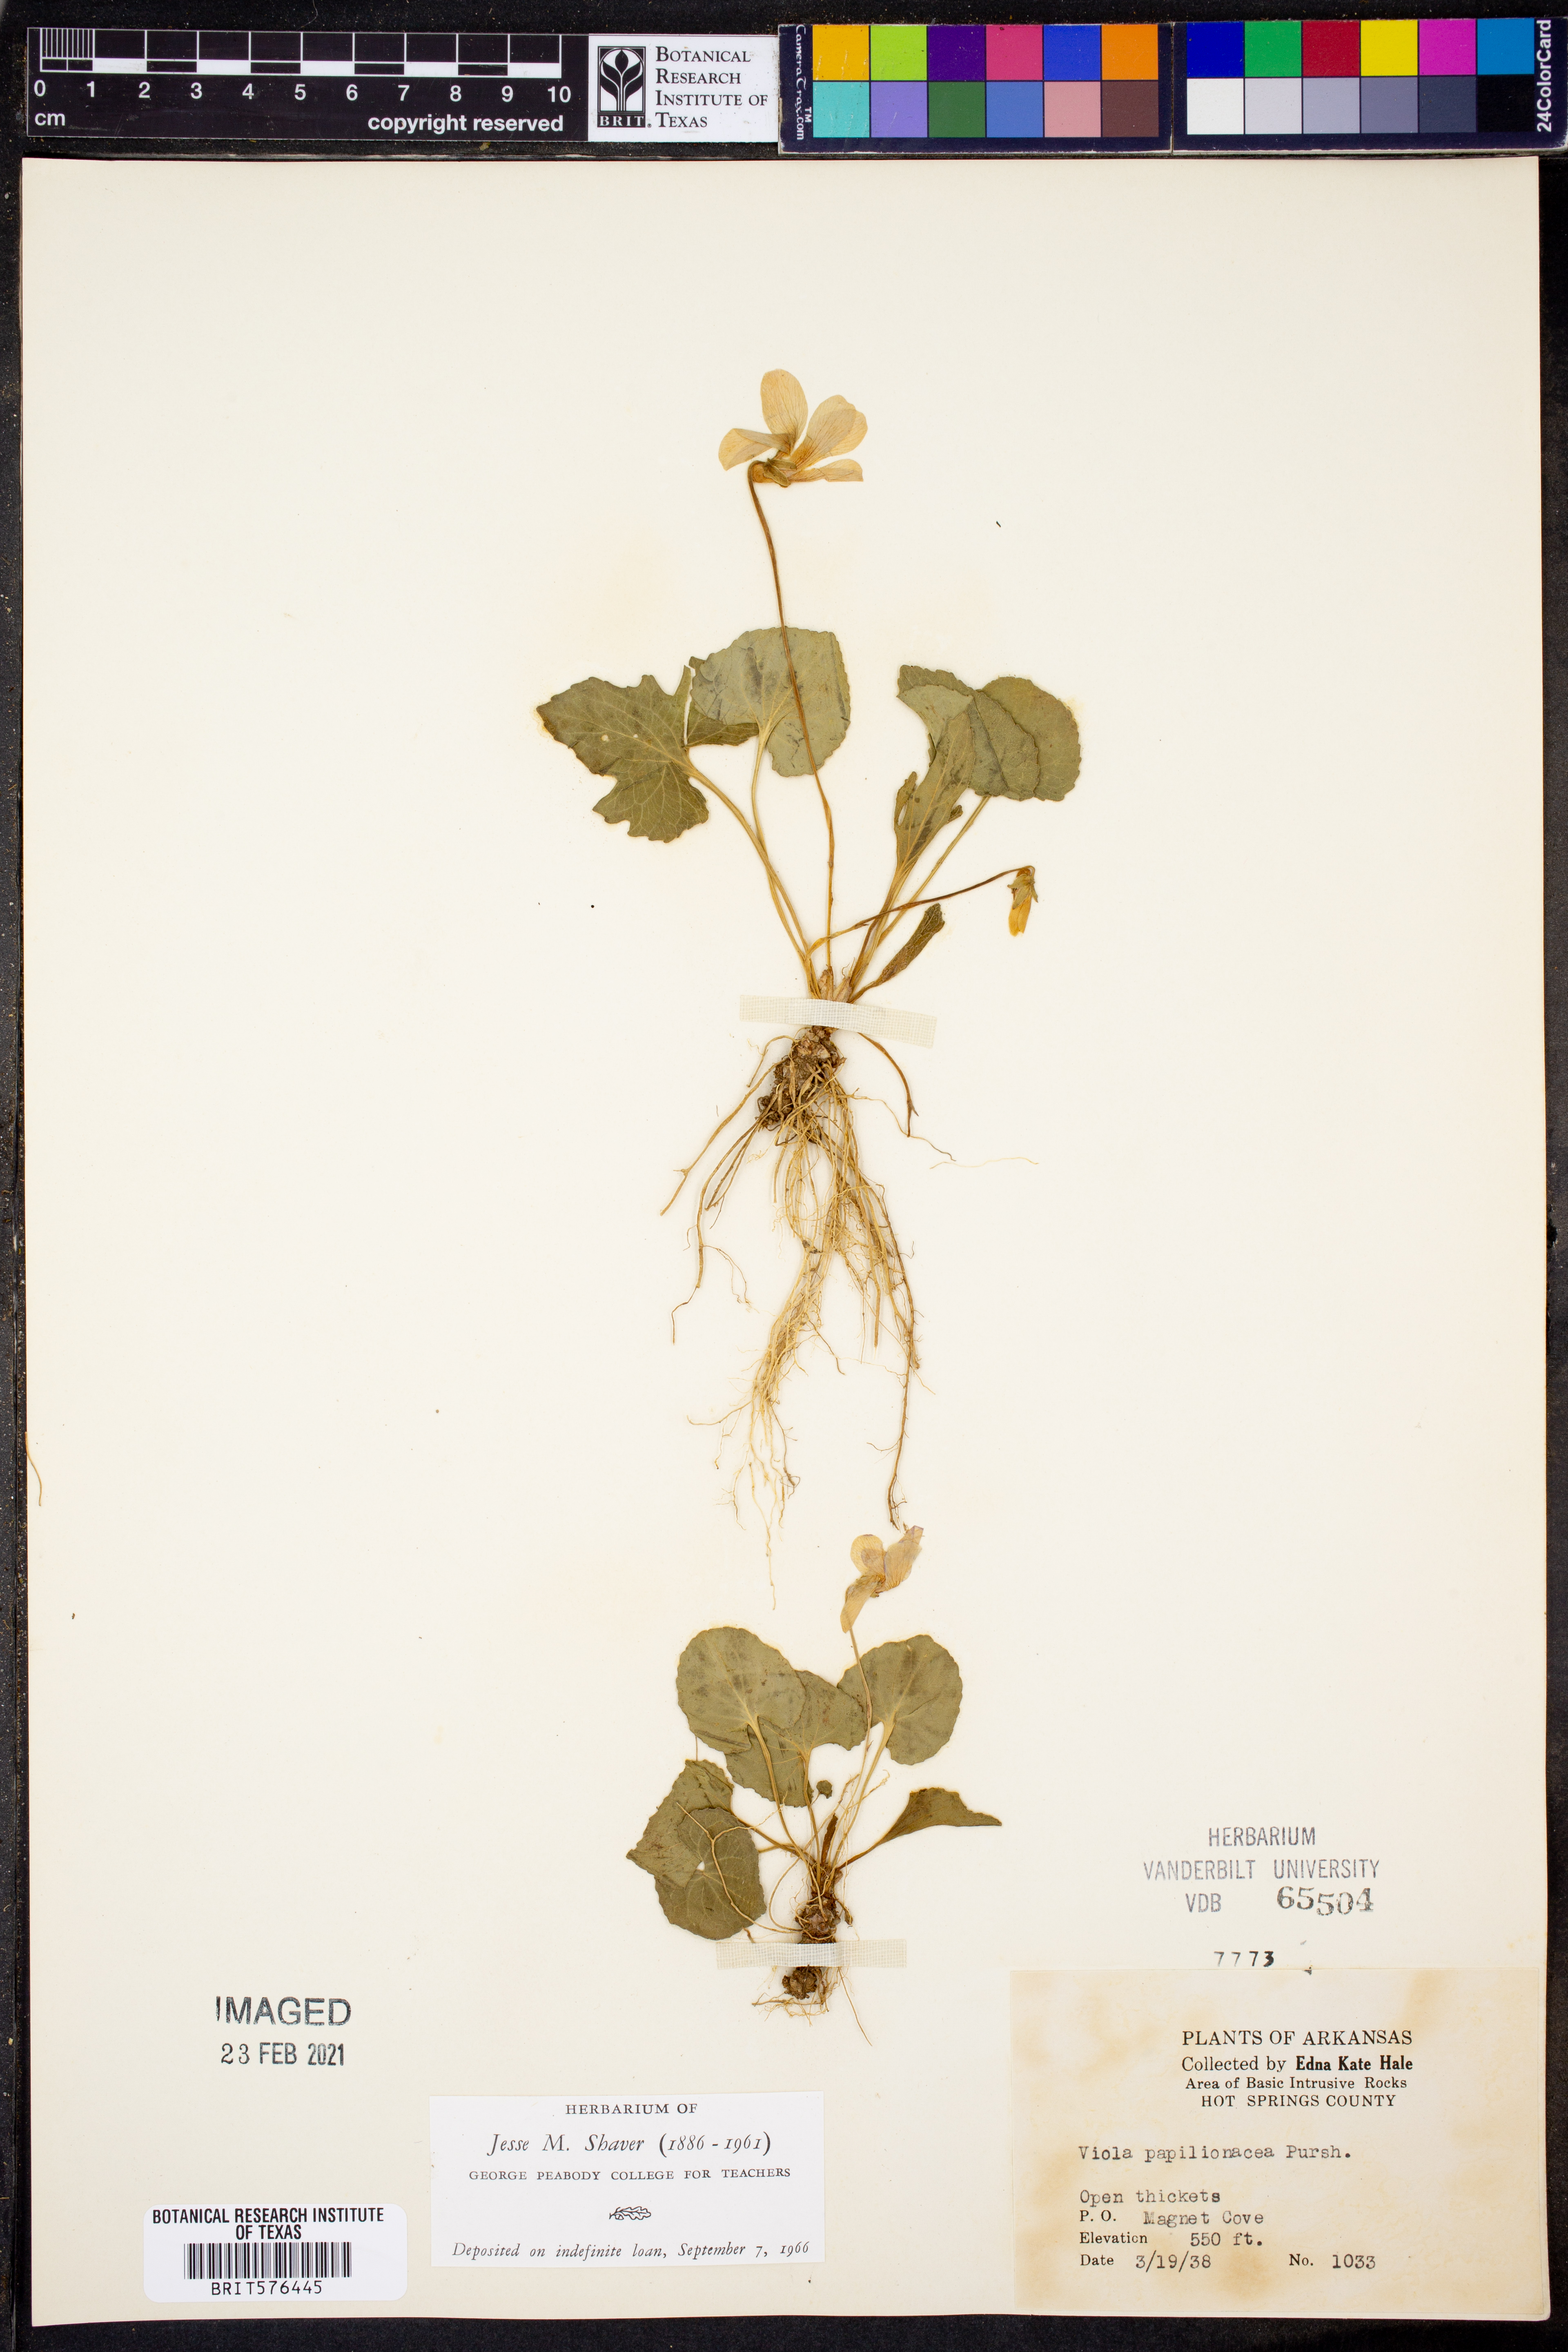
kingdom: Plantae
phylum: Tracheophyta
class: Magnoliopsida
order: Malpighiales
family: Violaceae
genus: Viola
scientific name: Viola sororia
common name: Dooryard violet
